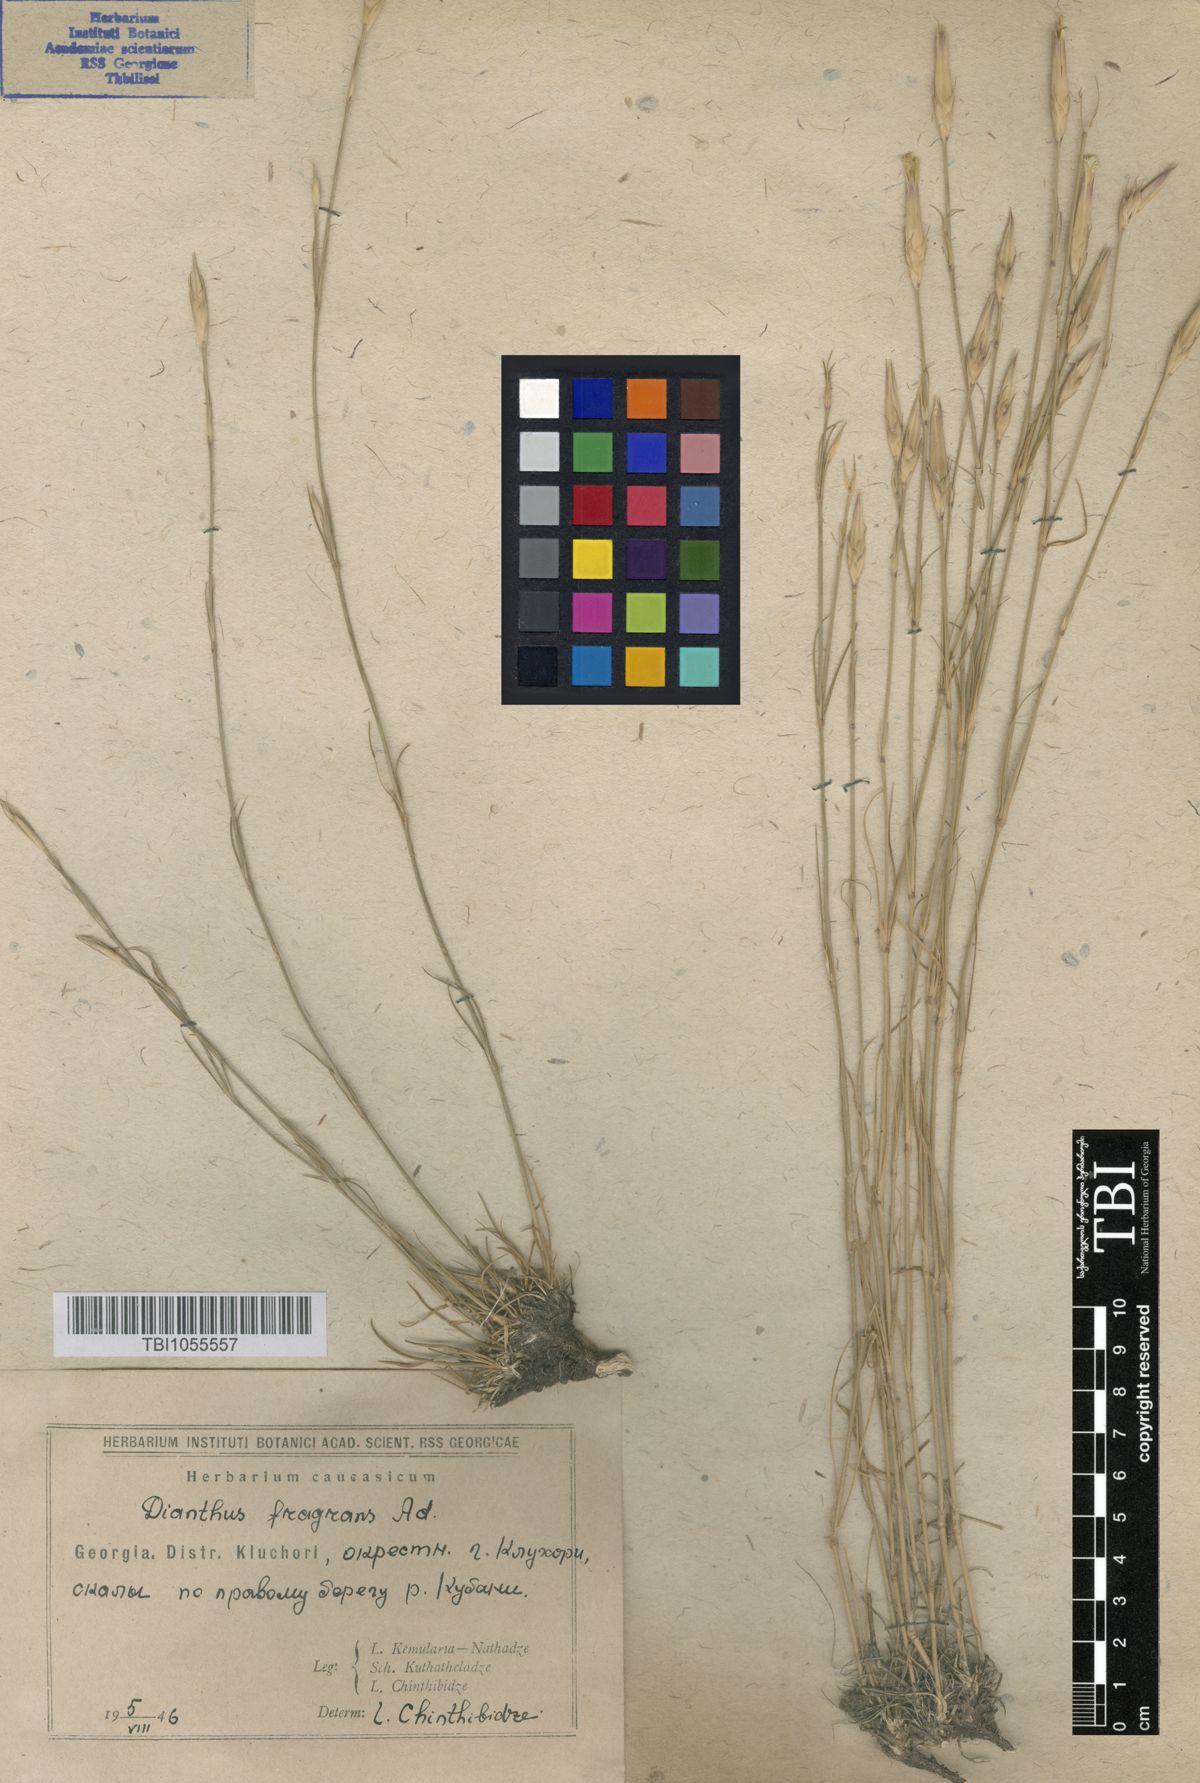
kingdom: Plantae
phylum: Tracheophyta
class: Magnoliopsida
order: Caryophyllales
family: Caryophyllaceae
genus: Dianthus
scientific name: Dianthus
